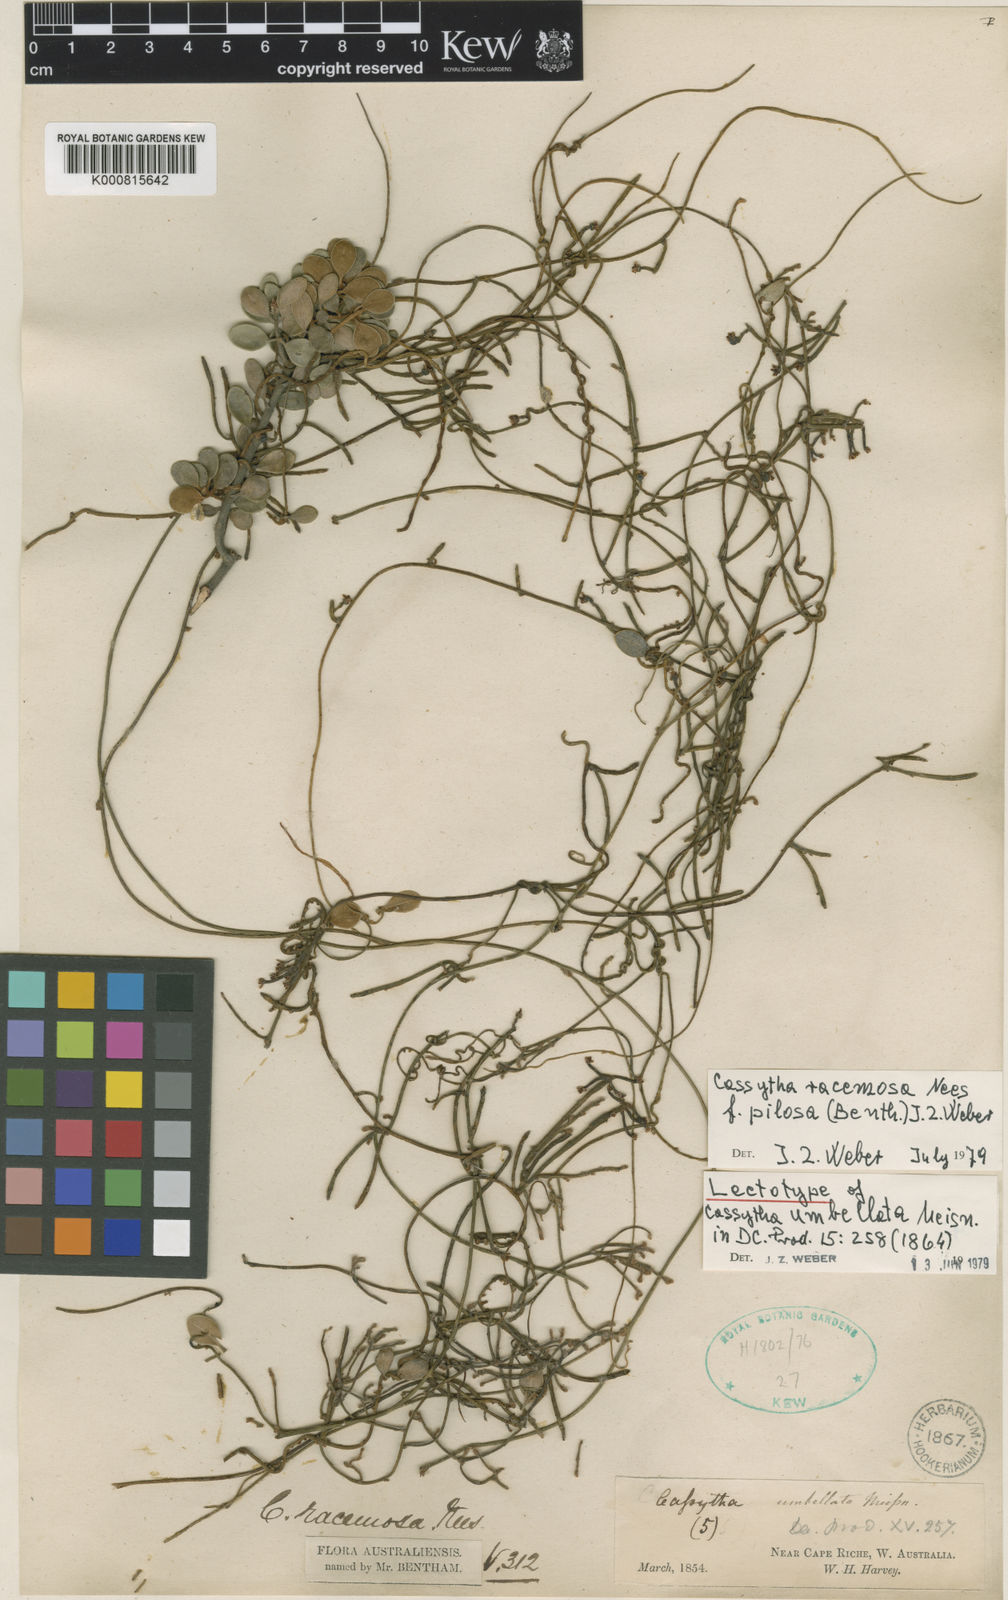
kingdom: Plantae
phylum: Tracheophyta
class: Magnoliopsida
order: Laurales
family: Lauraceae
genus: Cassytha
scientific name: Cassytha racemosa
